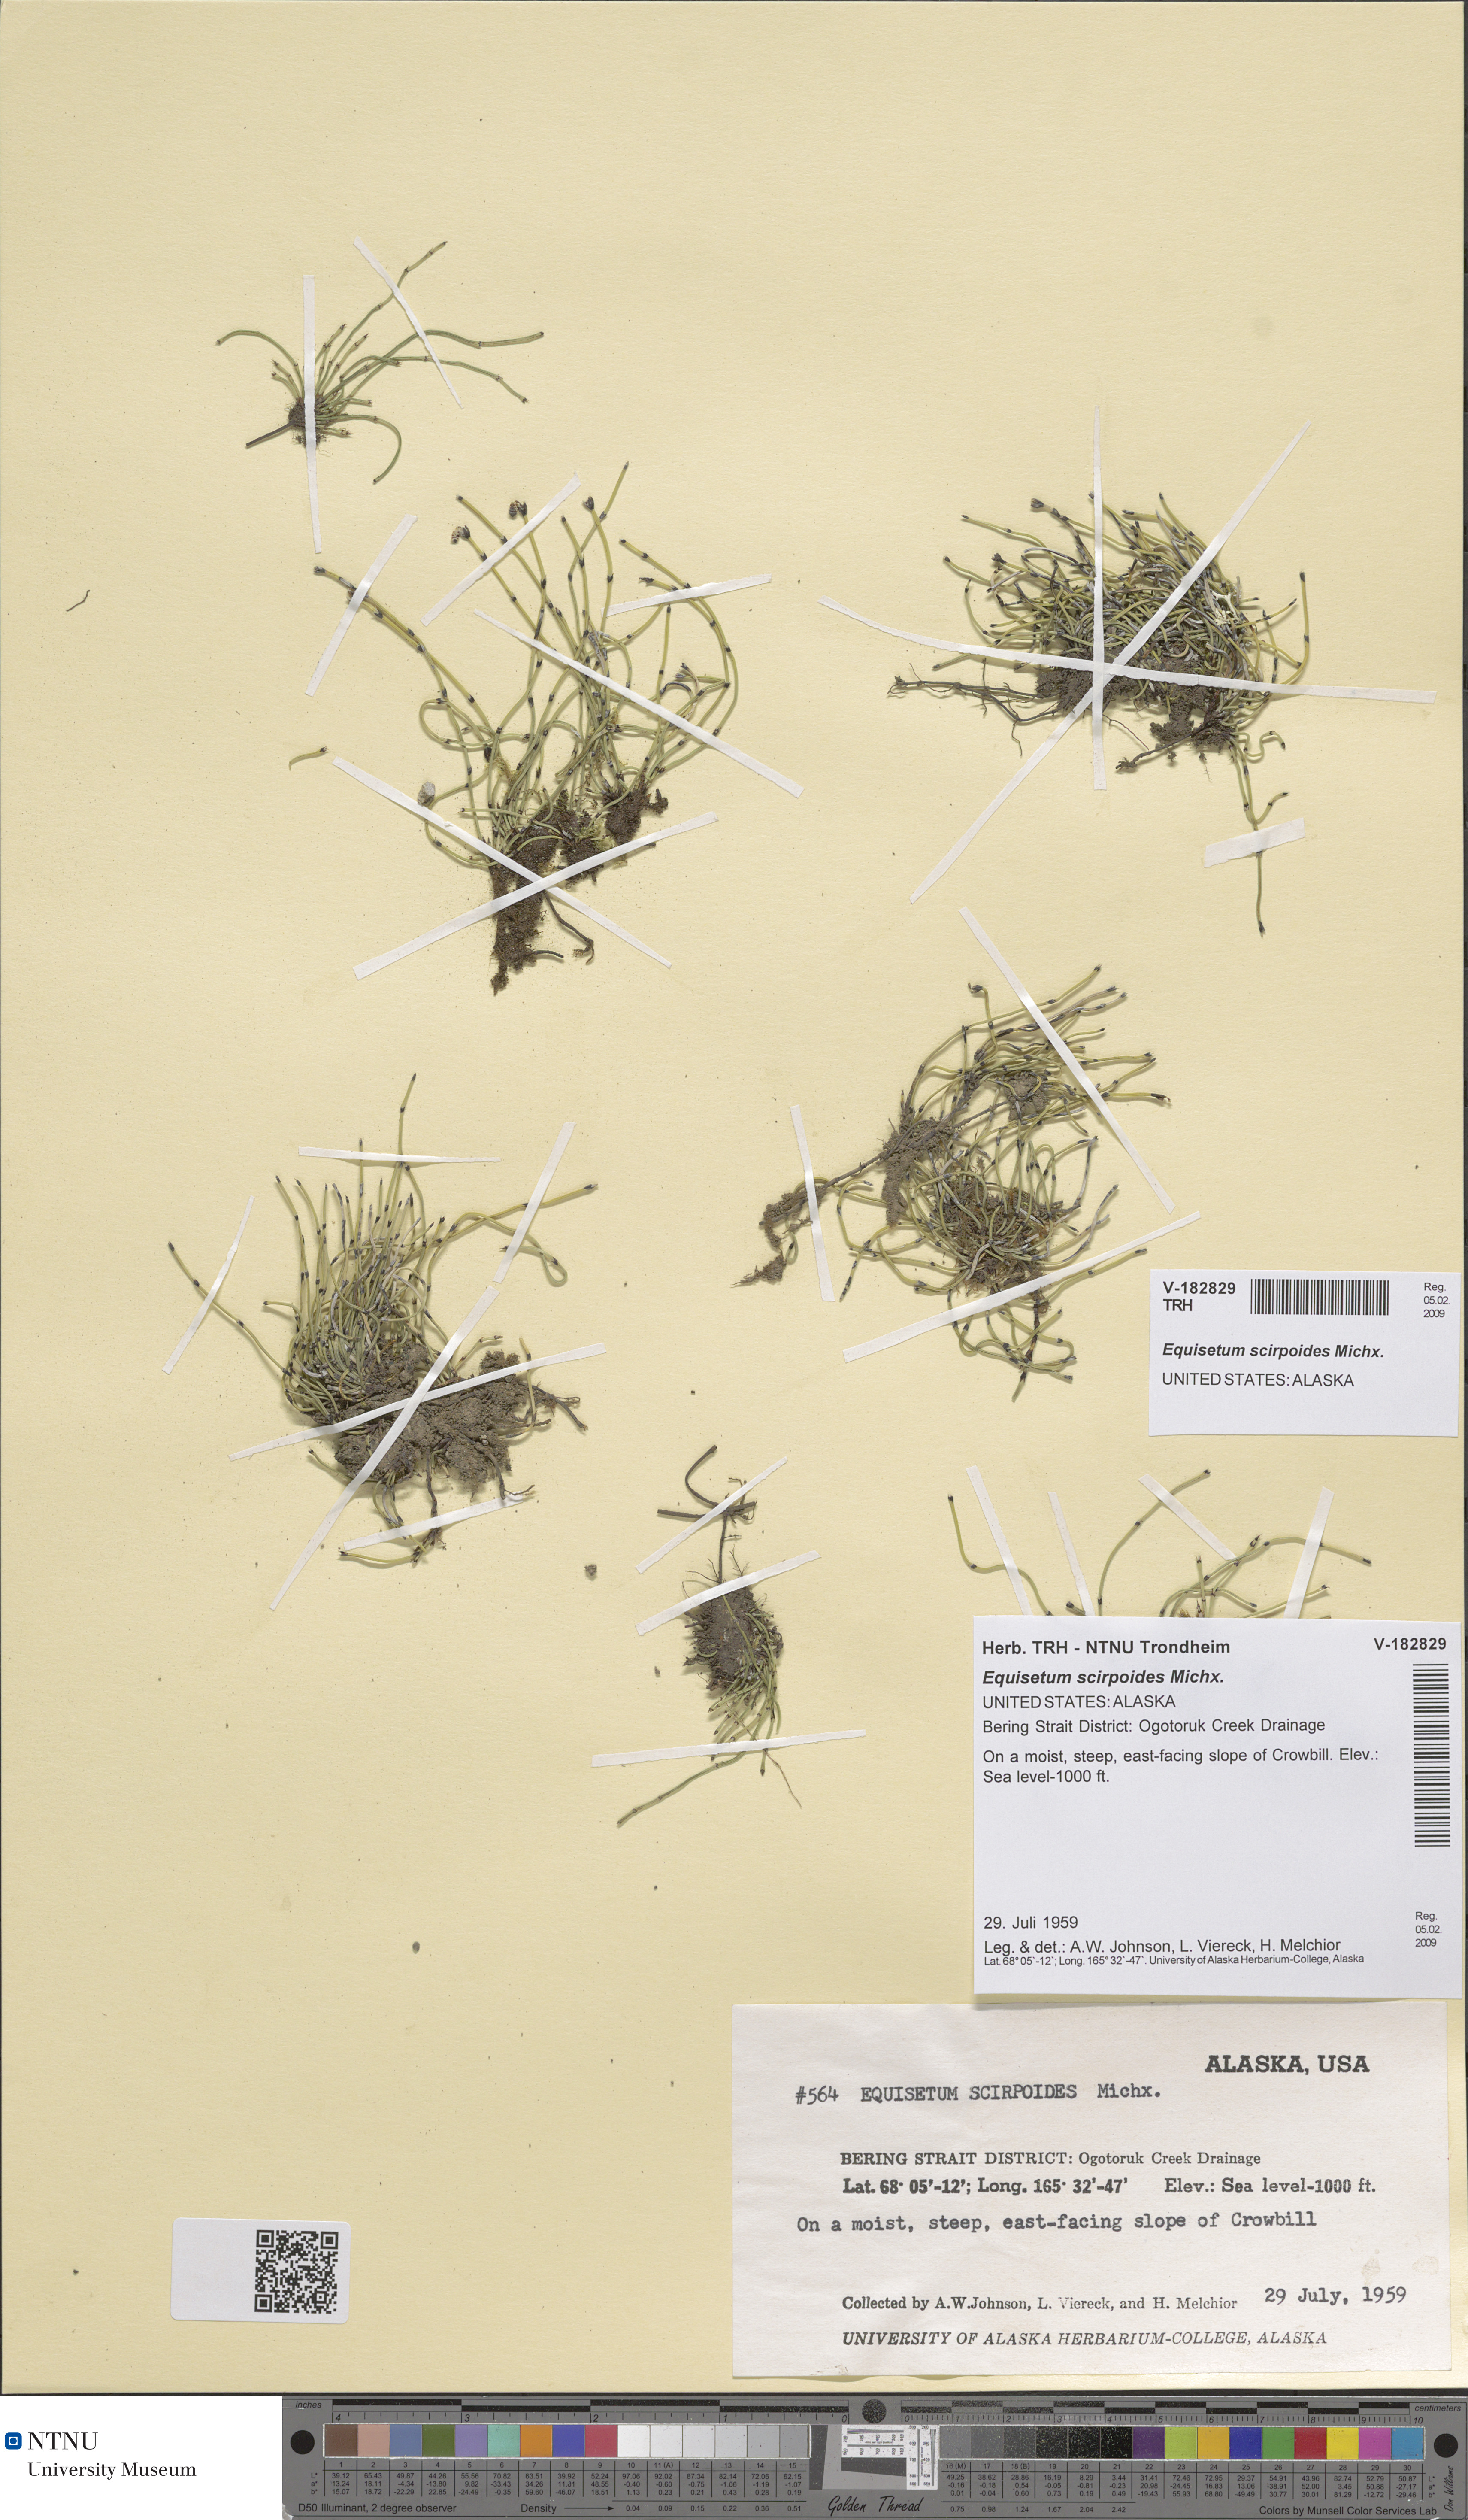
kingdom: Plantae
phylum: Tracheophyta
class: Polypodiopsida
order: Equisetales
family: Equisetaceae
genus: Equisetum
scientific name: Equisetum scirpoides
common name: Delicate horsetail
